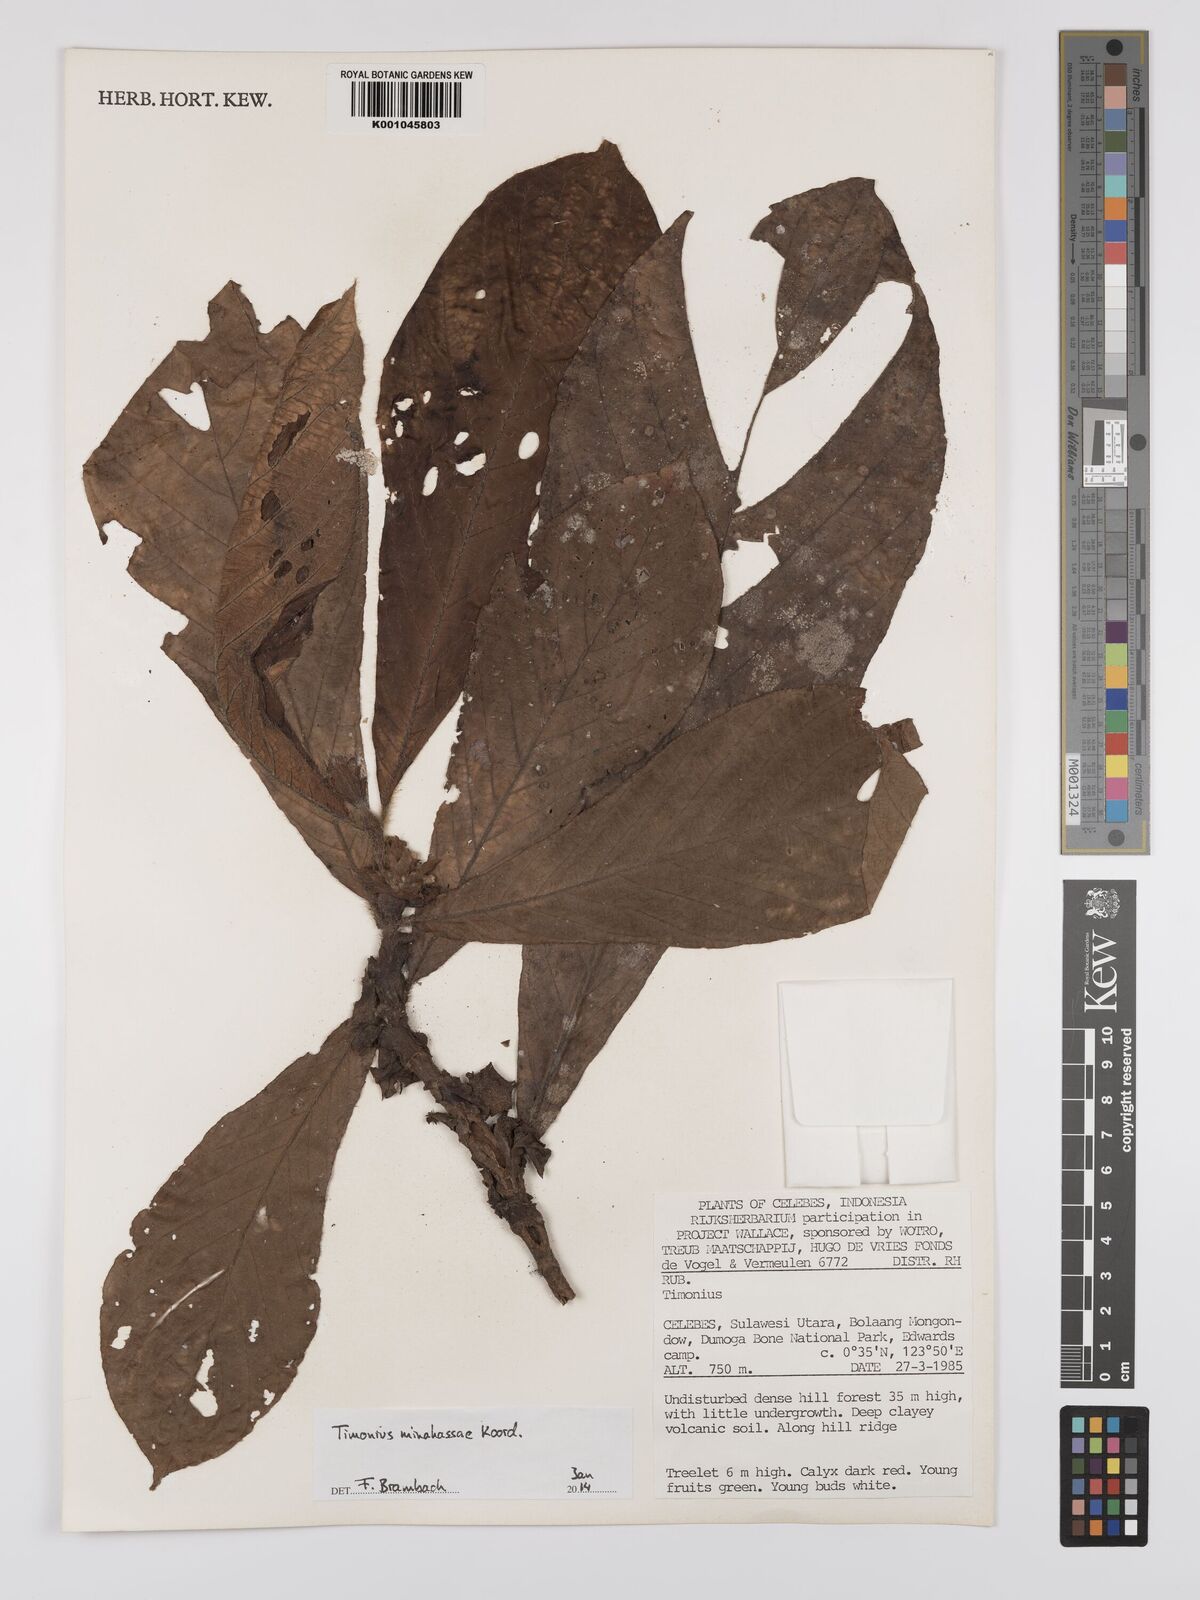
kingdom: Plantae
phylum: Tracheophyta
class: Magnoliopsida
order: Gentianales
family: Rubiaceae
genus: Timonius
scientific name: Timonius minahassae
